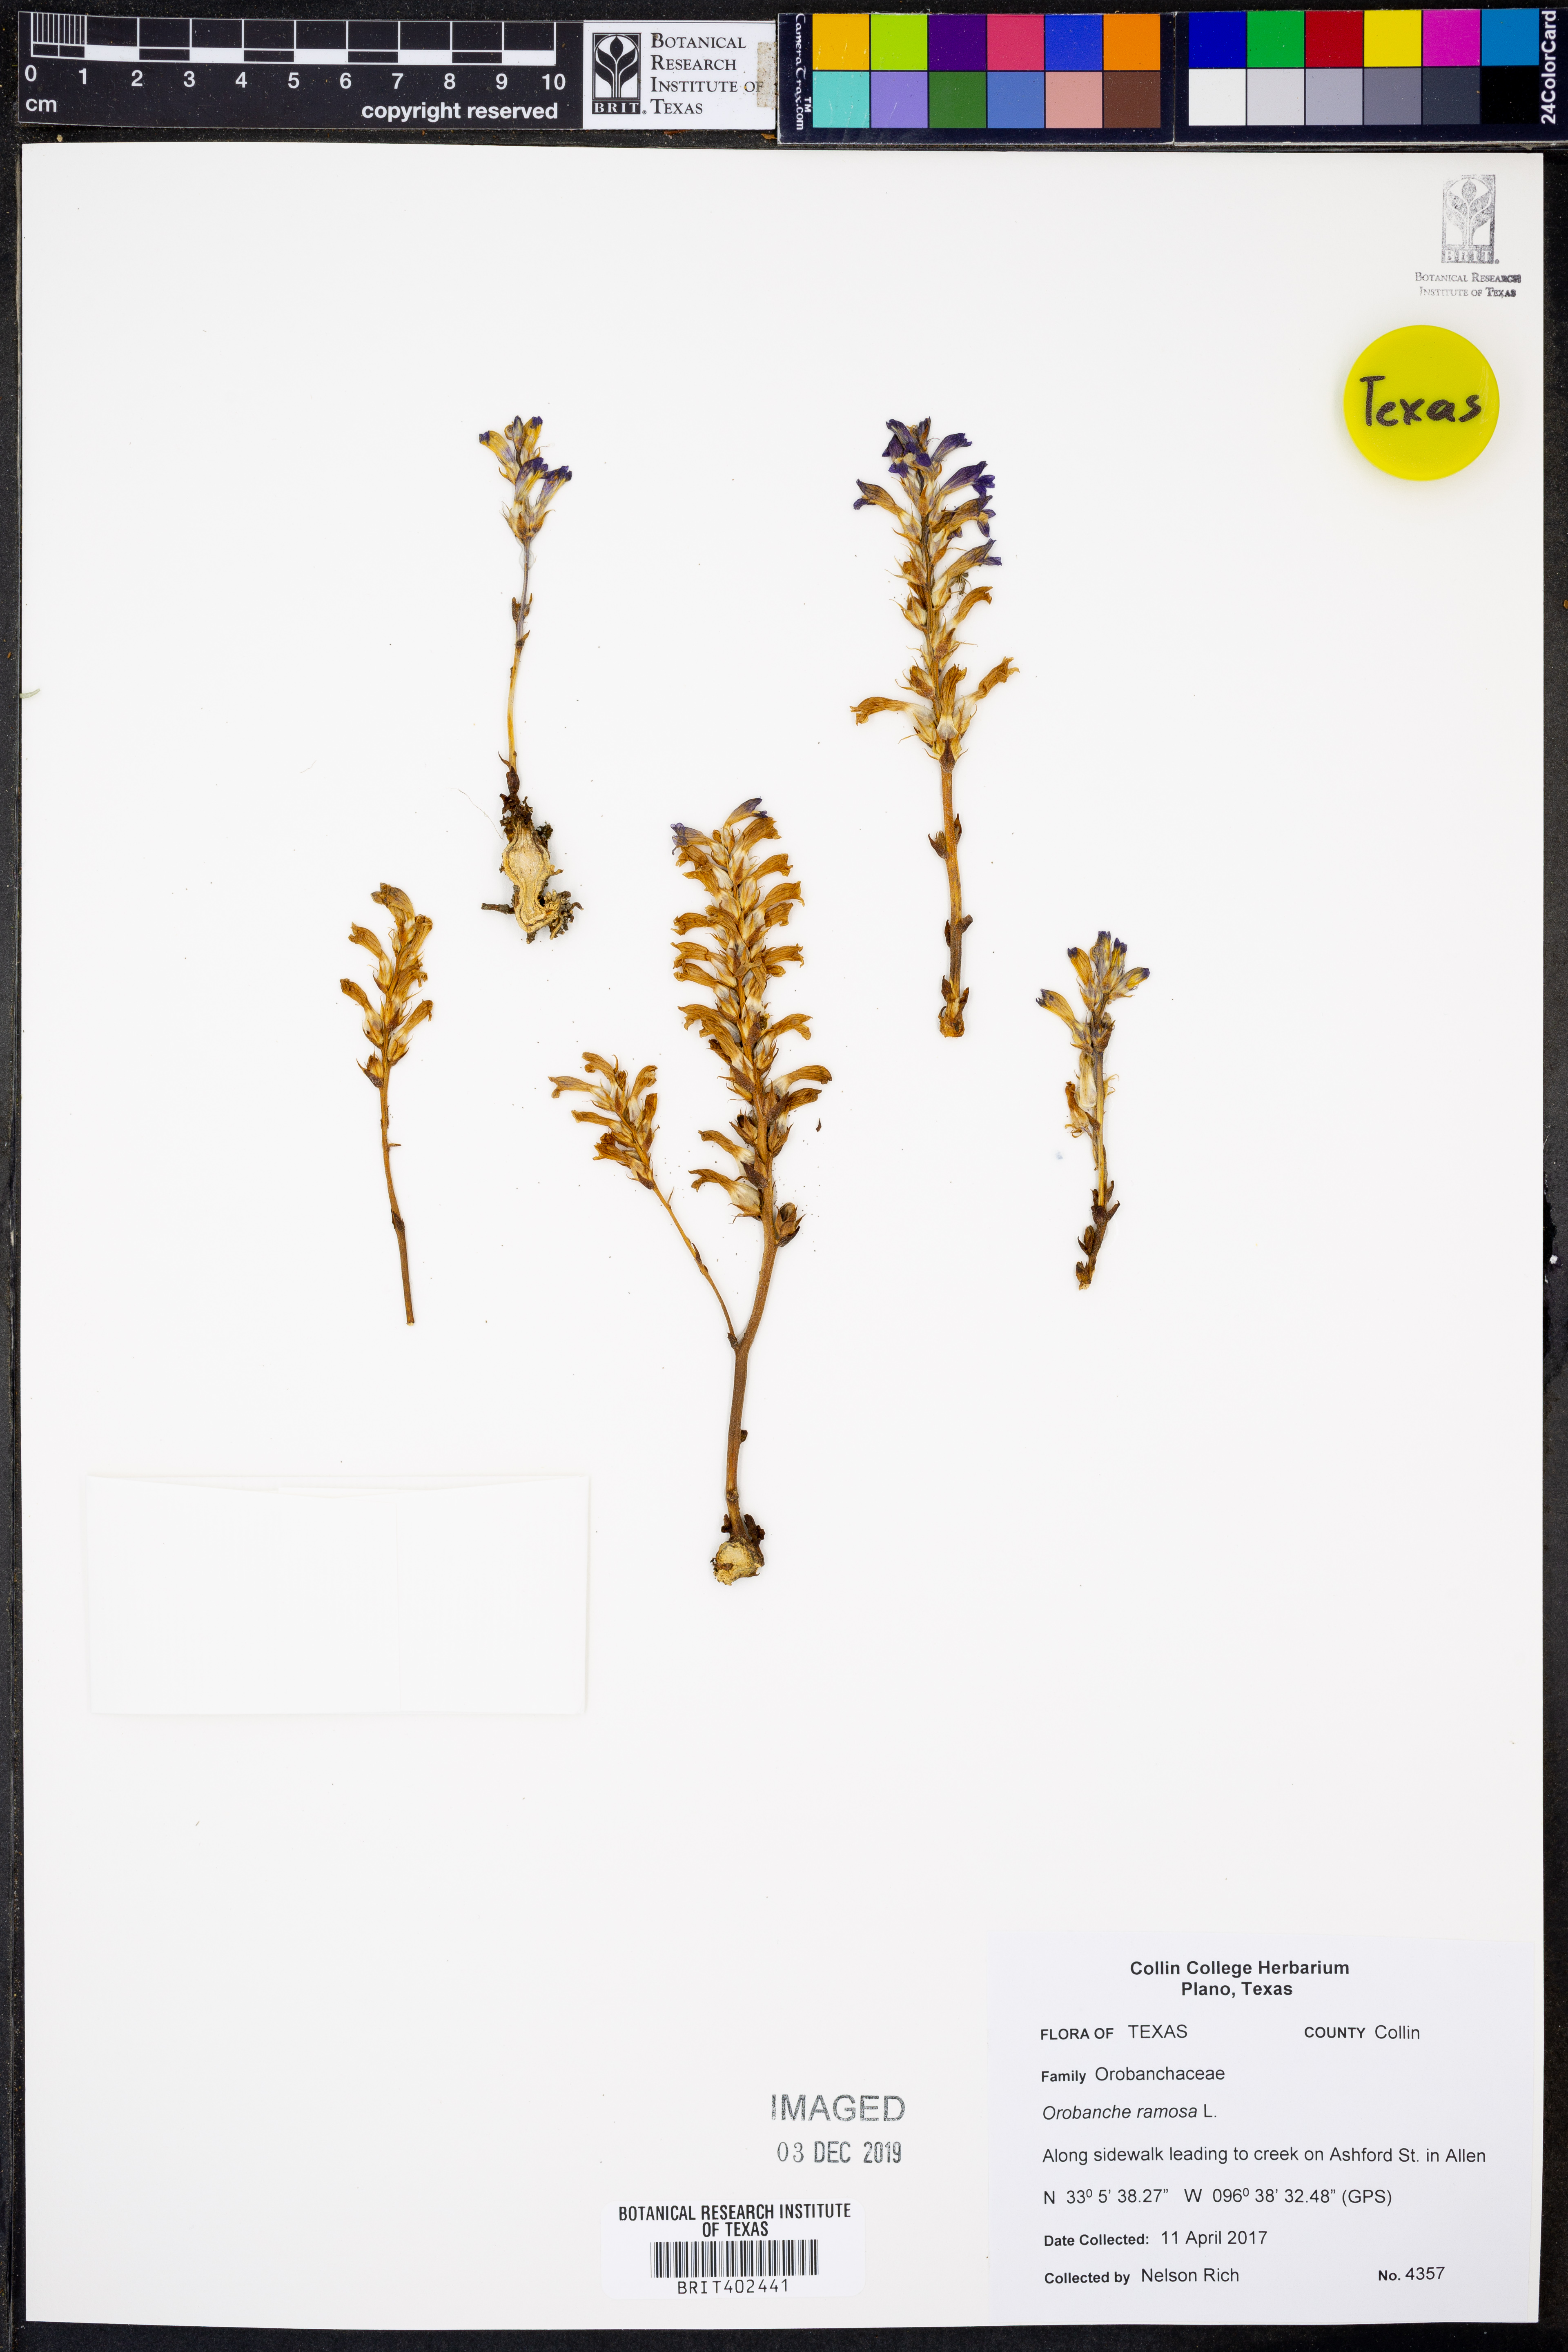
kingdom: Plantae
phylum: Tracheophyta
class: Magnoliopsida
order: Lamiales
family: Orobanchaceae
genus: Phelipanche
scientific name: Phelipanche ramosa
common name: Branched broomrape
